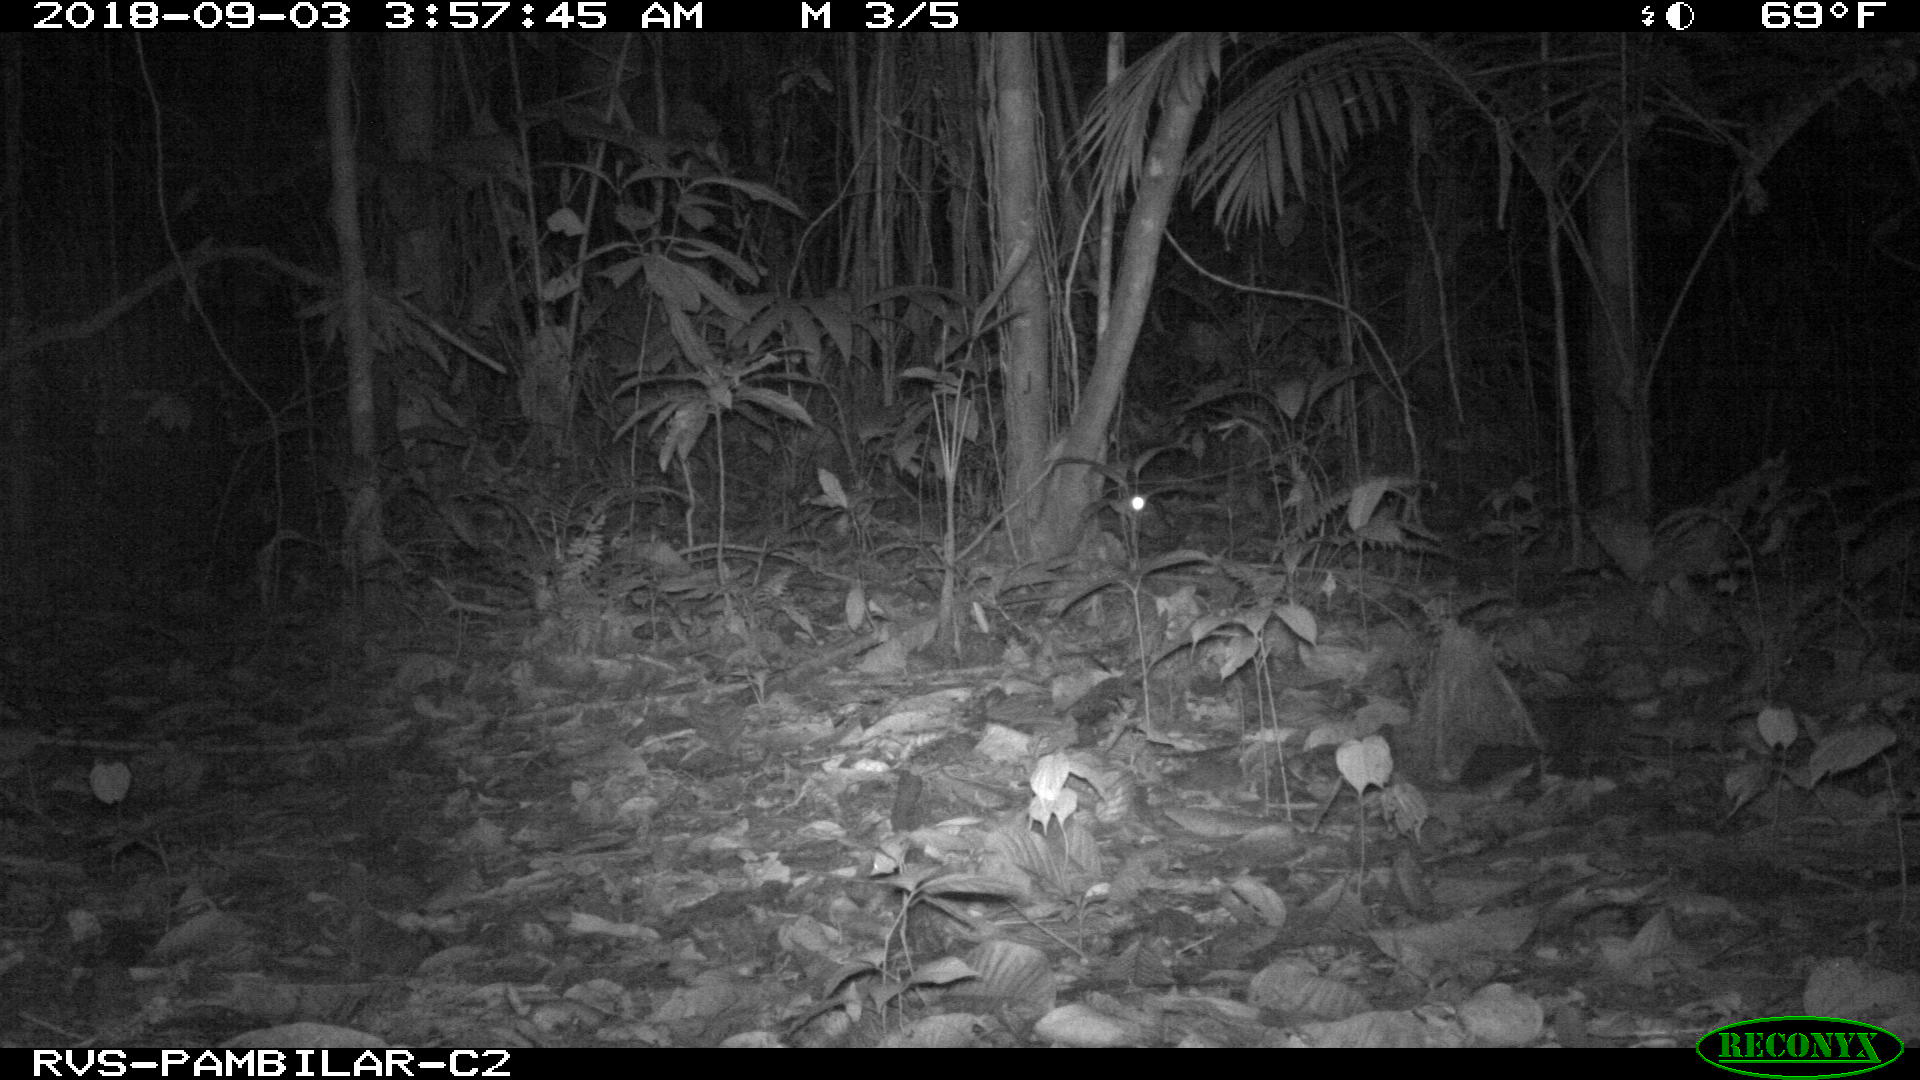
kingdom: Animalia
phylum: Chordata
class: Mammalia
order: Rodentia
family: Cuniculidae
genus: Cuniculus
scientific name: Cuniculus paca
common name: Lowland paca
